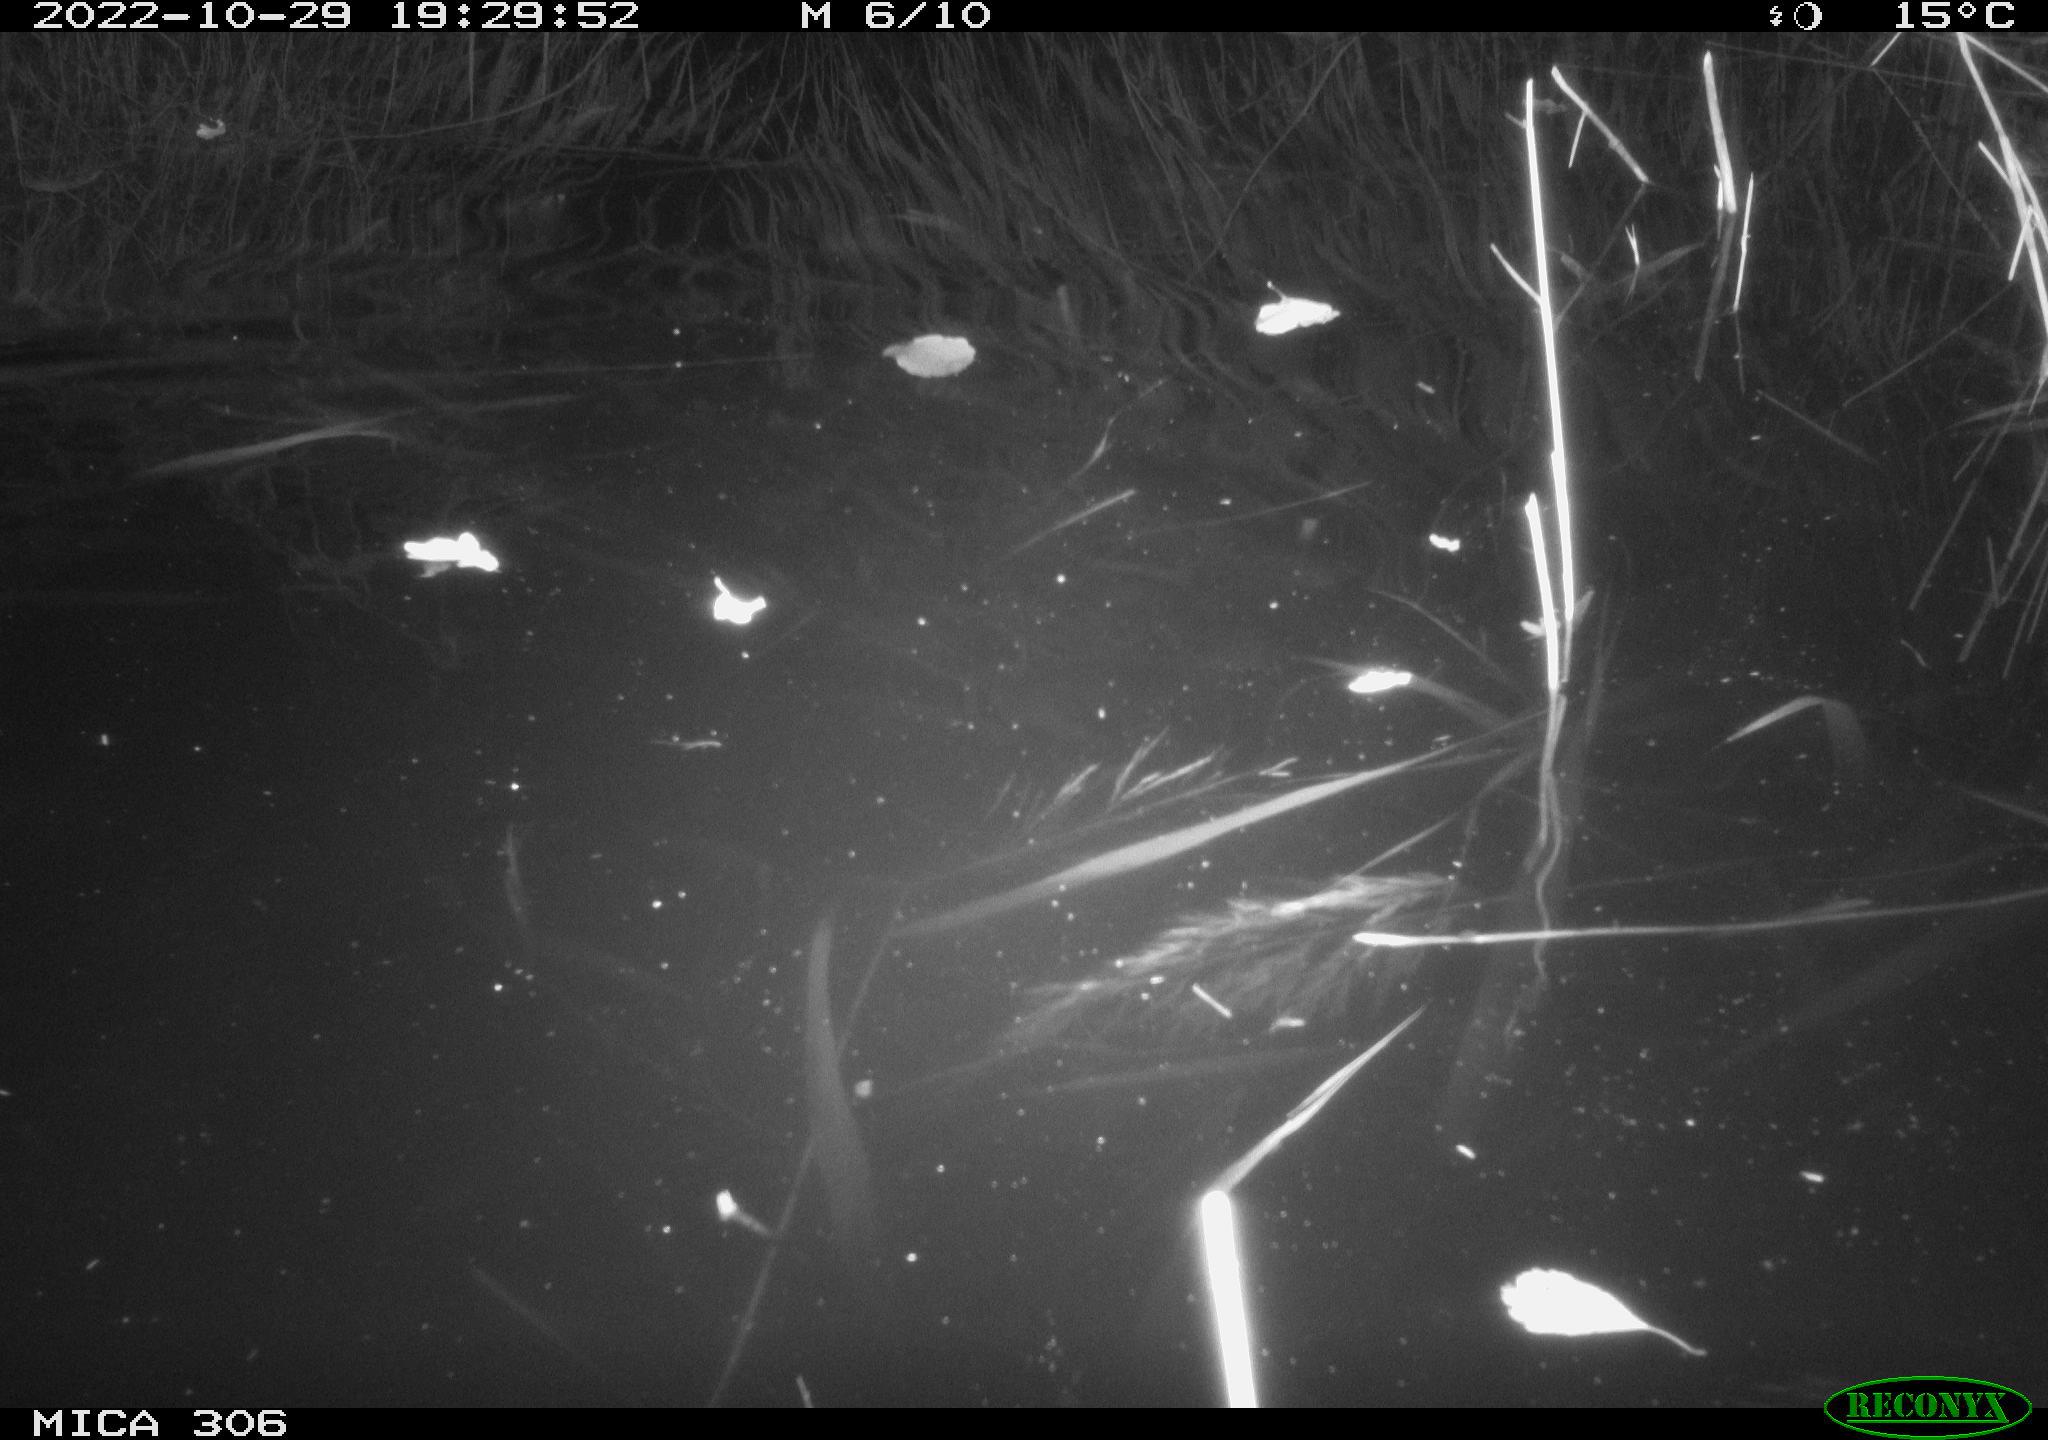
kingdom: Animalia
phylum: Chordata
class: Mammalia
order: Rodentia
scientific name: Rodentia
